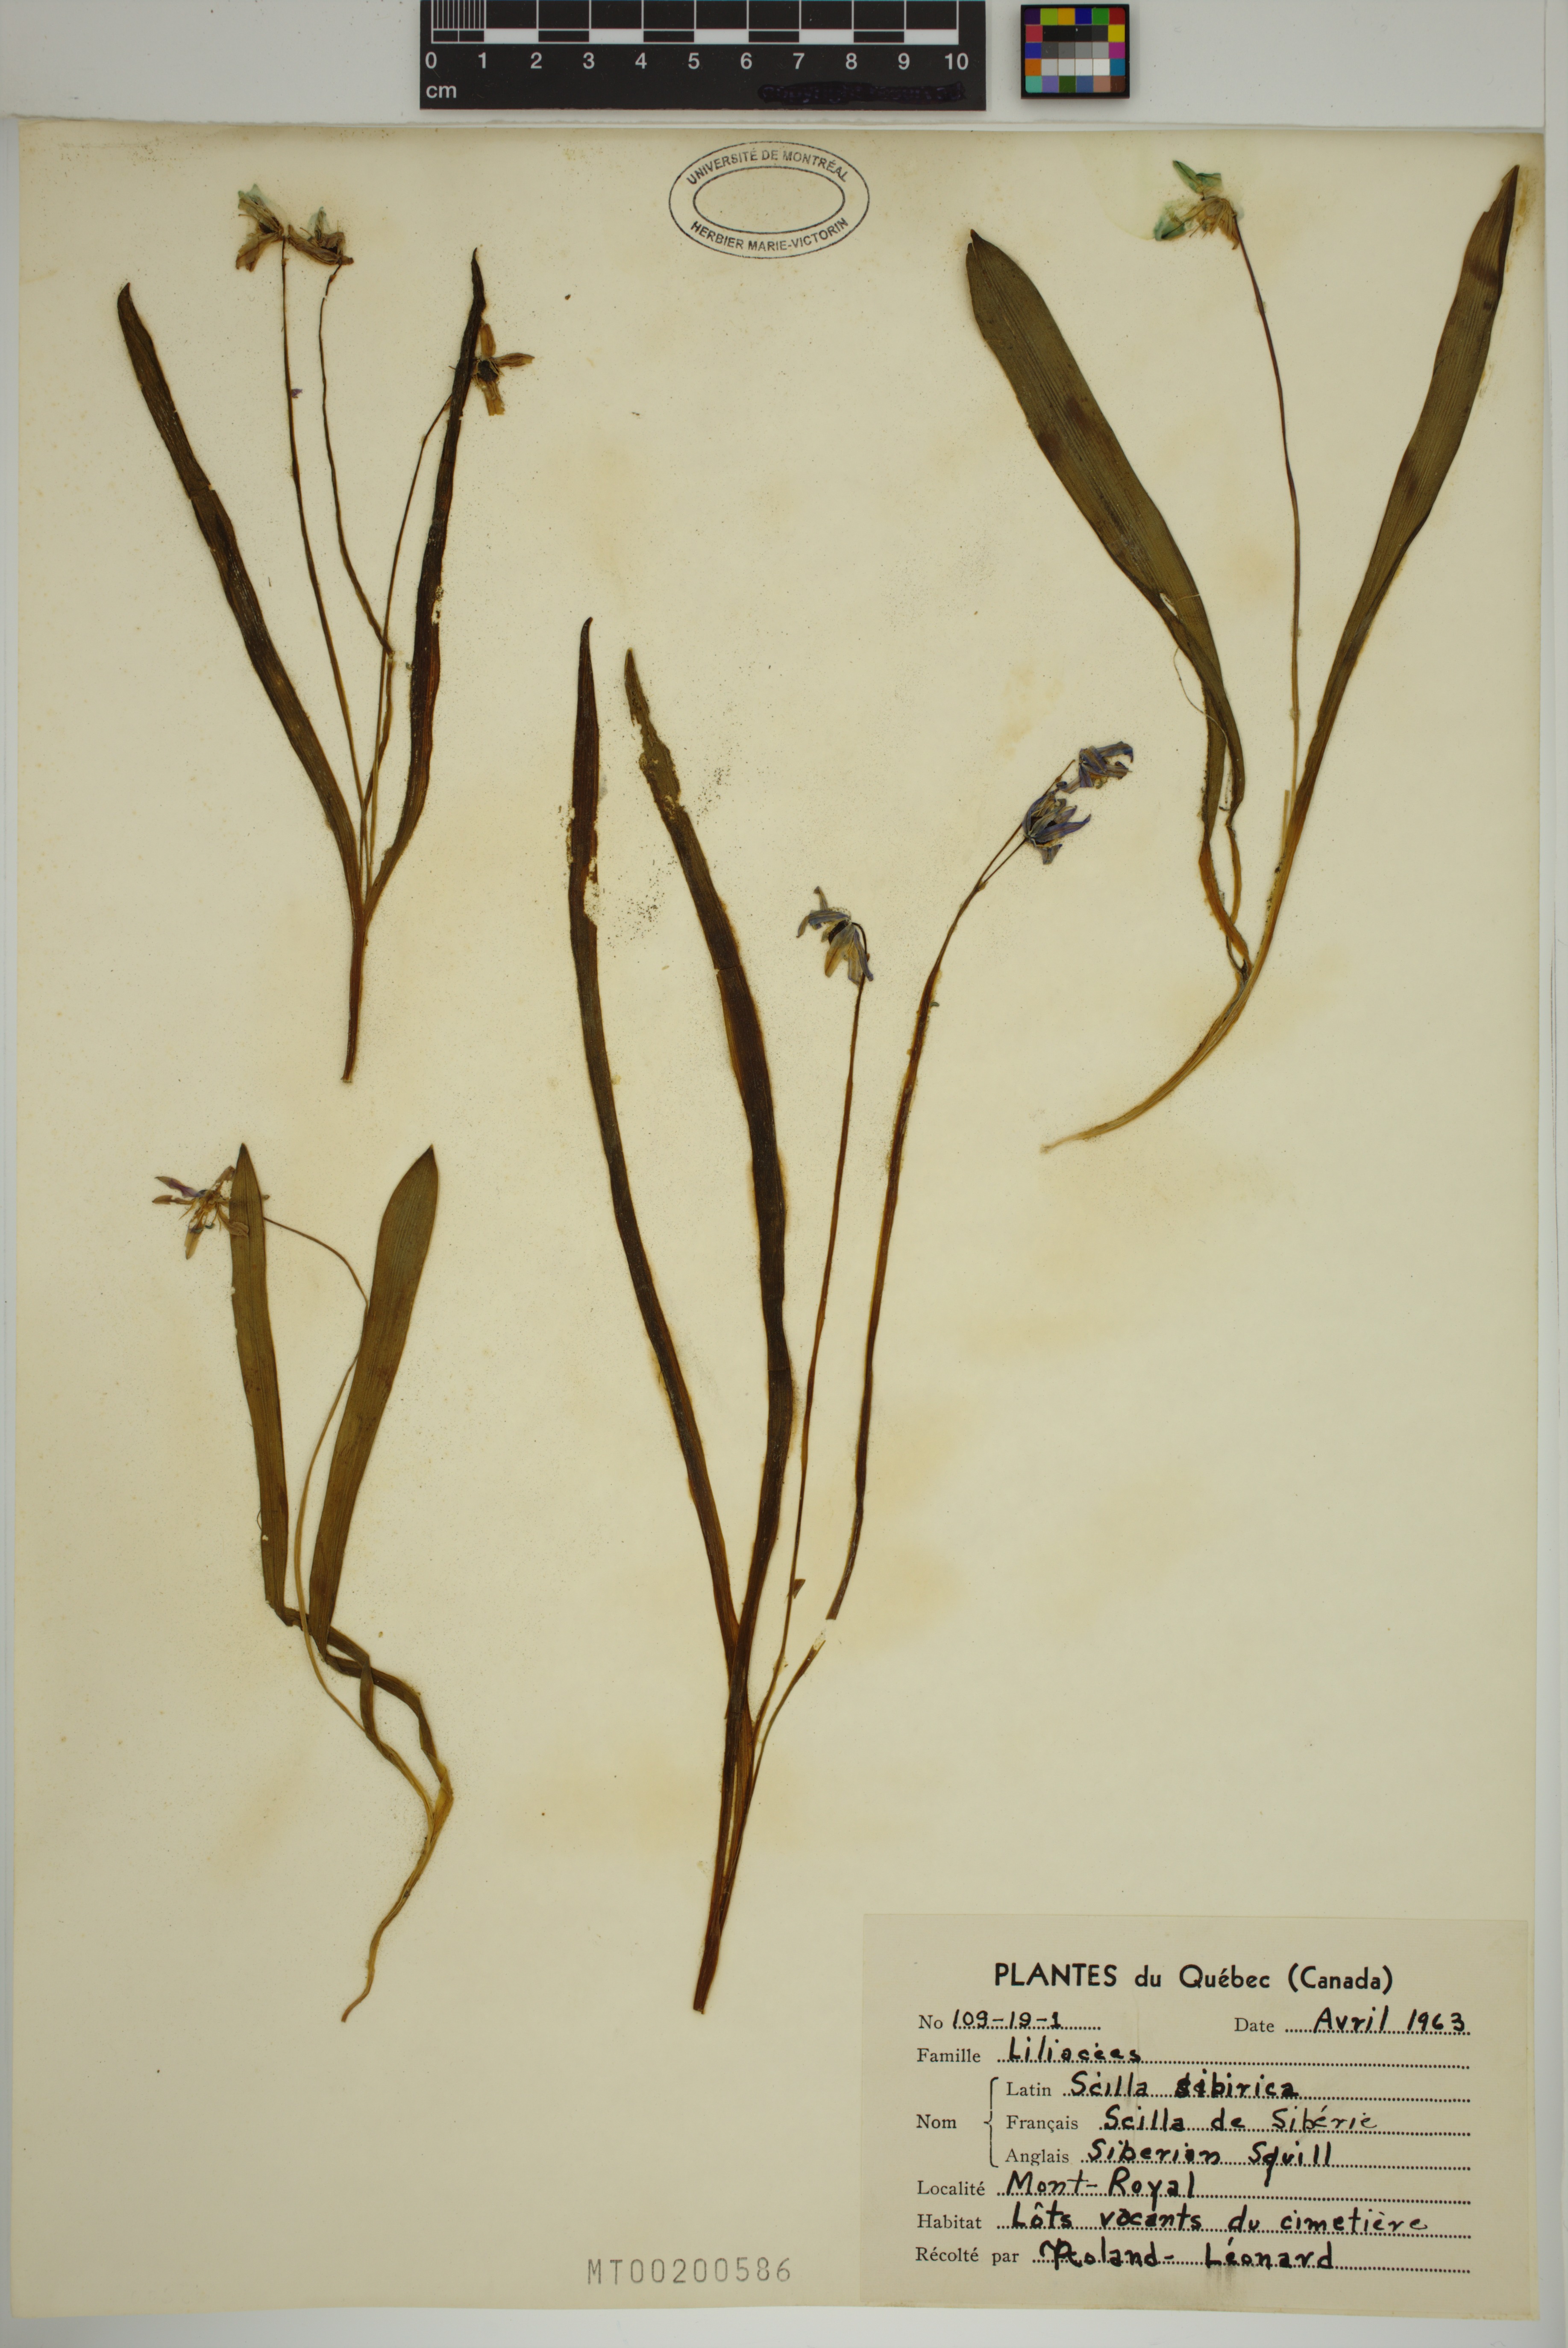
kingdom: Plantae
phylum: Tracheophyta
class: Liliopsida
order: Asparagales
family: Asparagaceae
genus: Scilla
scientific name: Scilla siberica
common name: Siberian squill
